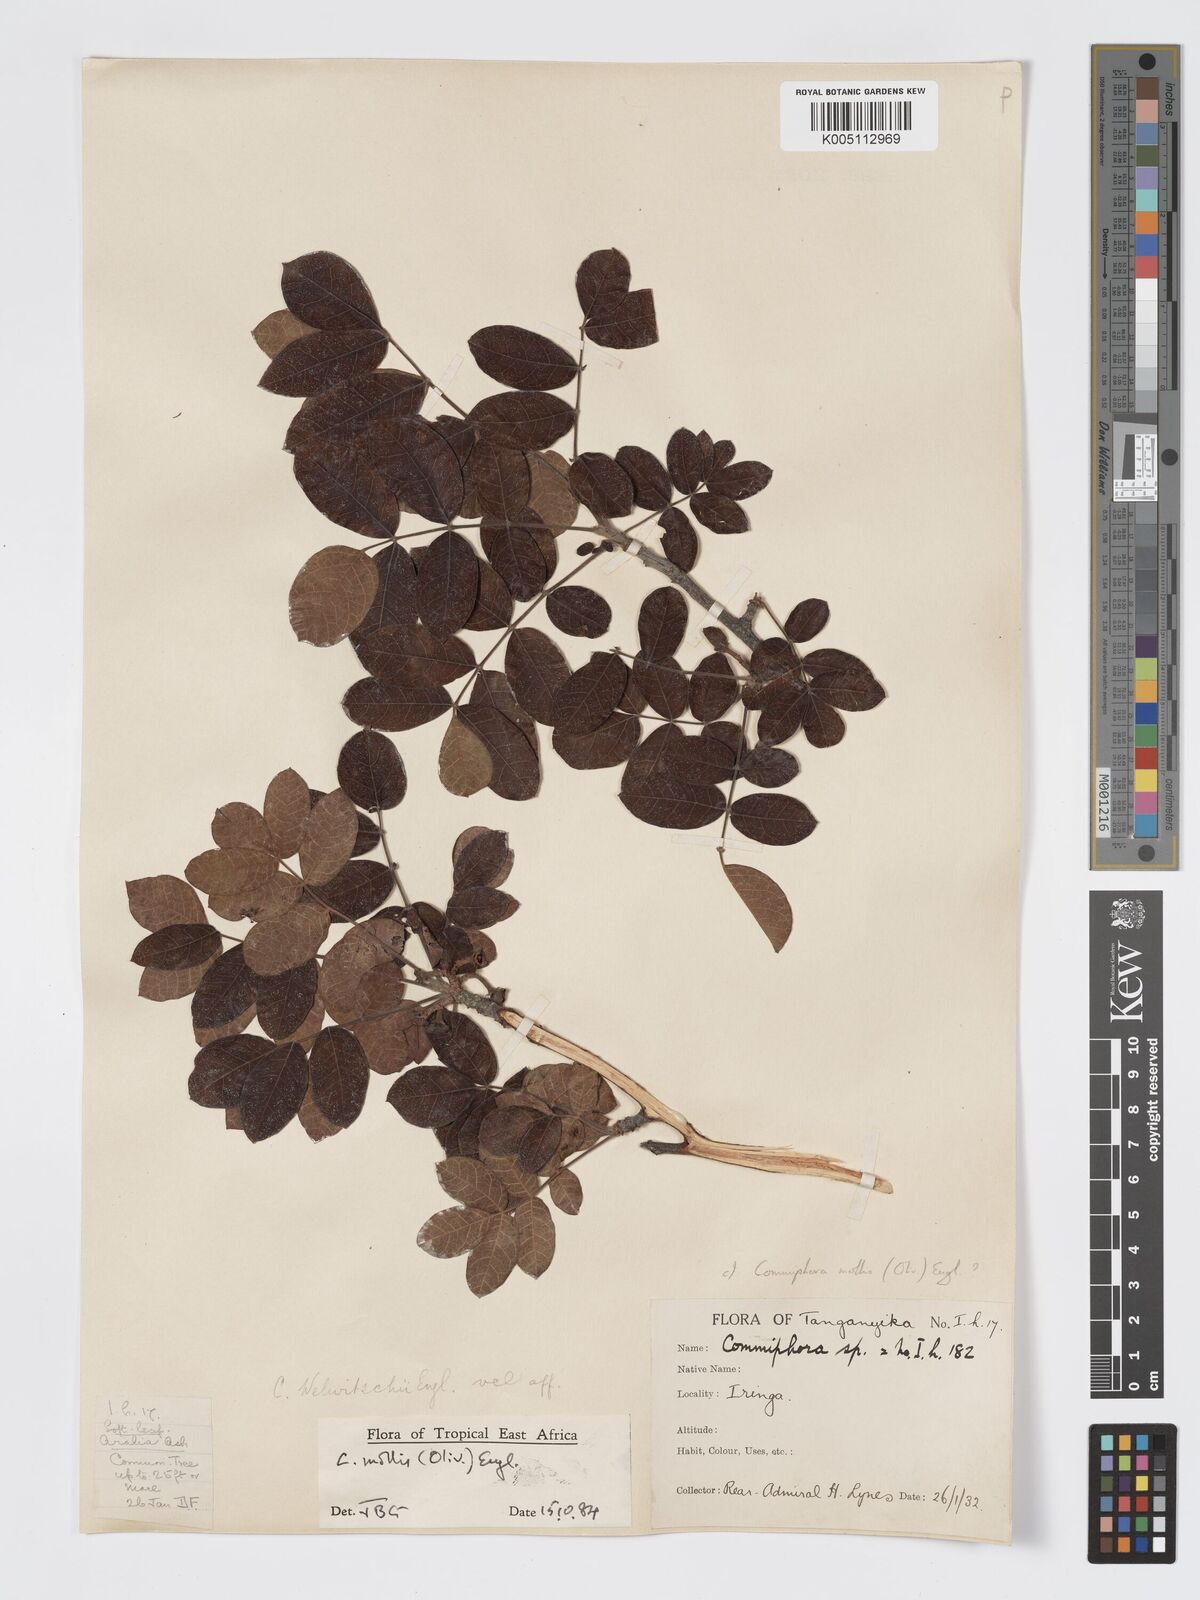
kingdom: Plantae
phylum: Tracheophyta
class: Magnoliopsida
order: Sapindales
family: Burseraceae
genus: Commiphora
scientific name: Commiphora
